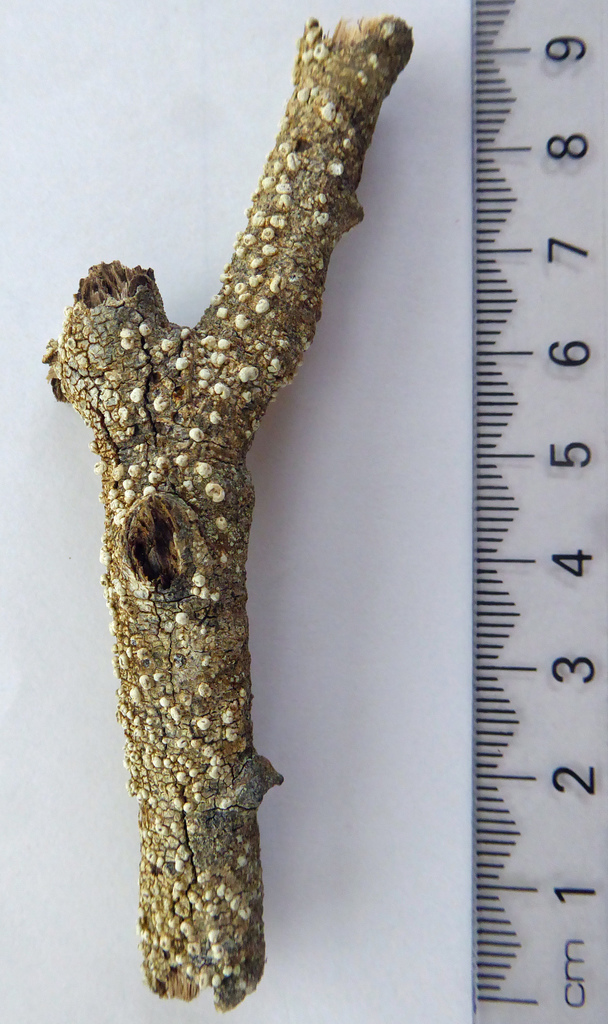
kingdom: Fungi
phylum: Ascomycota
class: Lecanoromycetes
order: Pertusariales
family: Pertusariaceae
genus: Pertusaria
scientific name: Pertusaria leucoplaca
